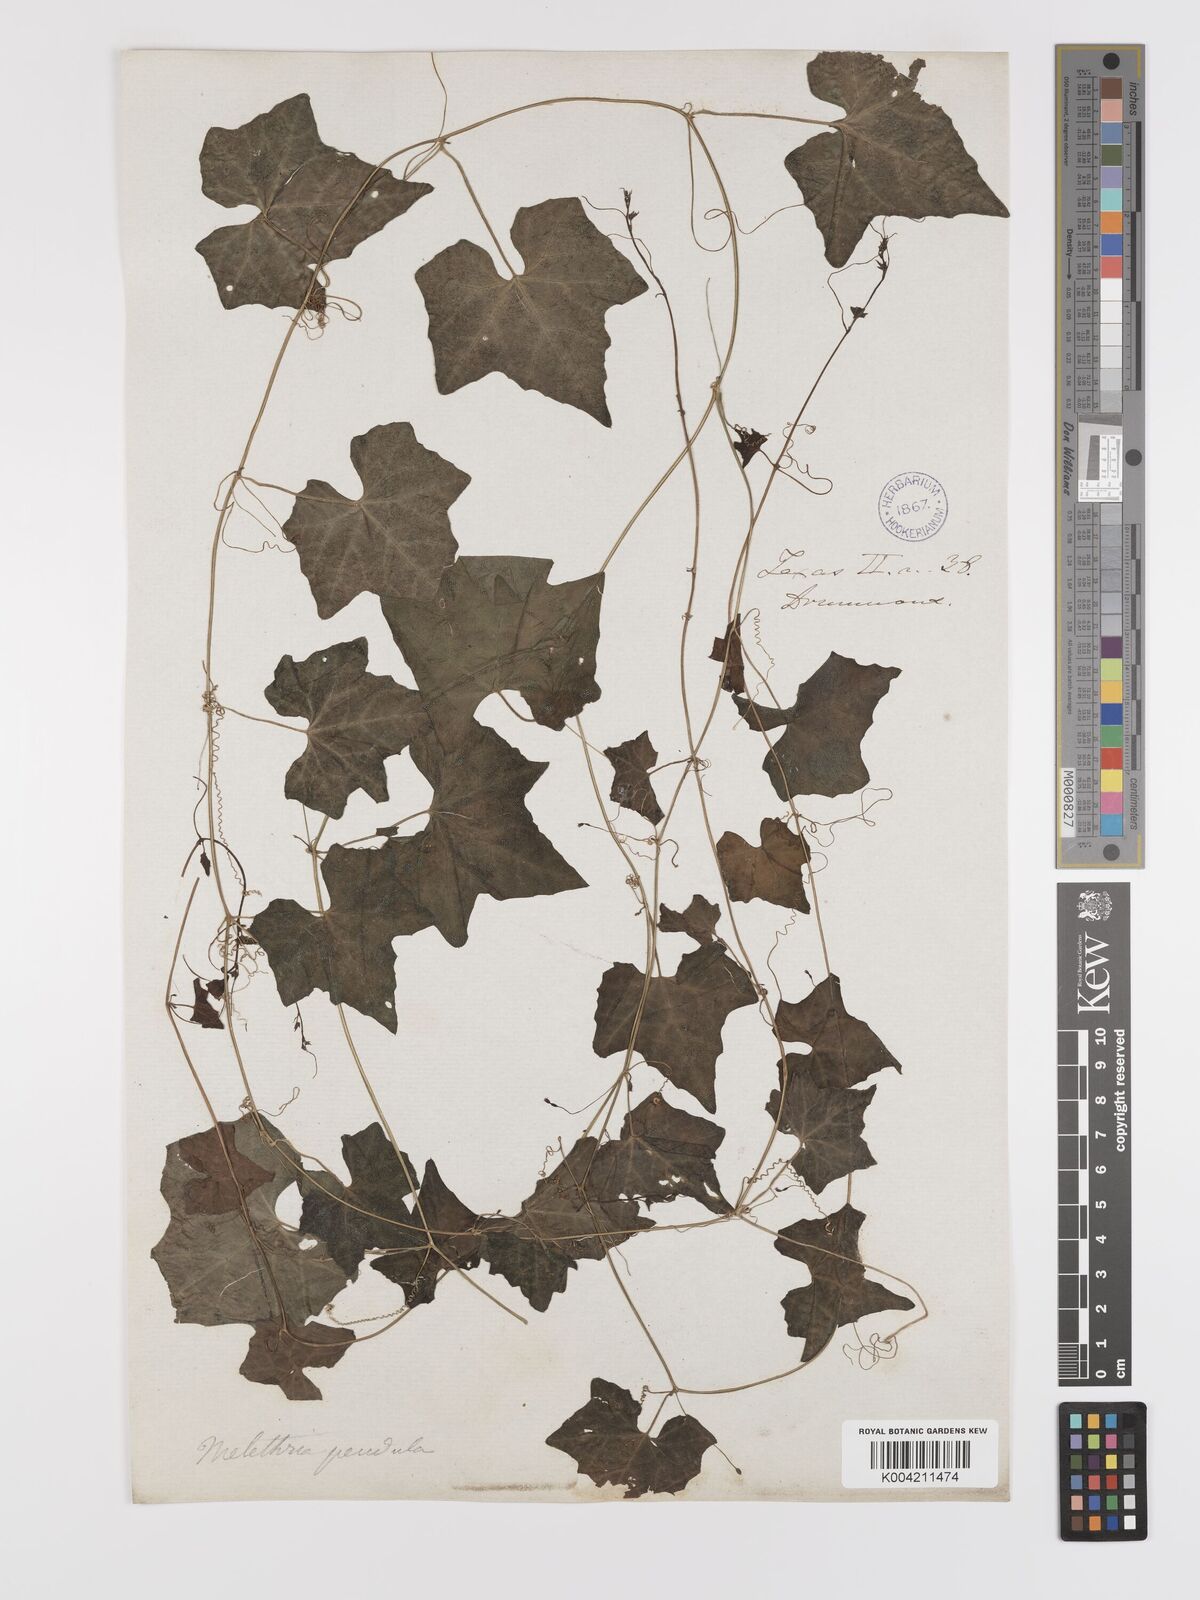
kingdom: Plantae
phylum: Tracheophyta
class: Magnoliopsida
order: Cucurbitales
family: Cucurbitaceae
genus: Melothria
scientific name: Melothria pendula
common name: Creeping-cucumber
